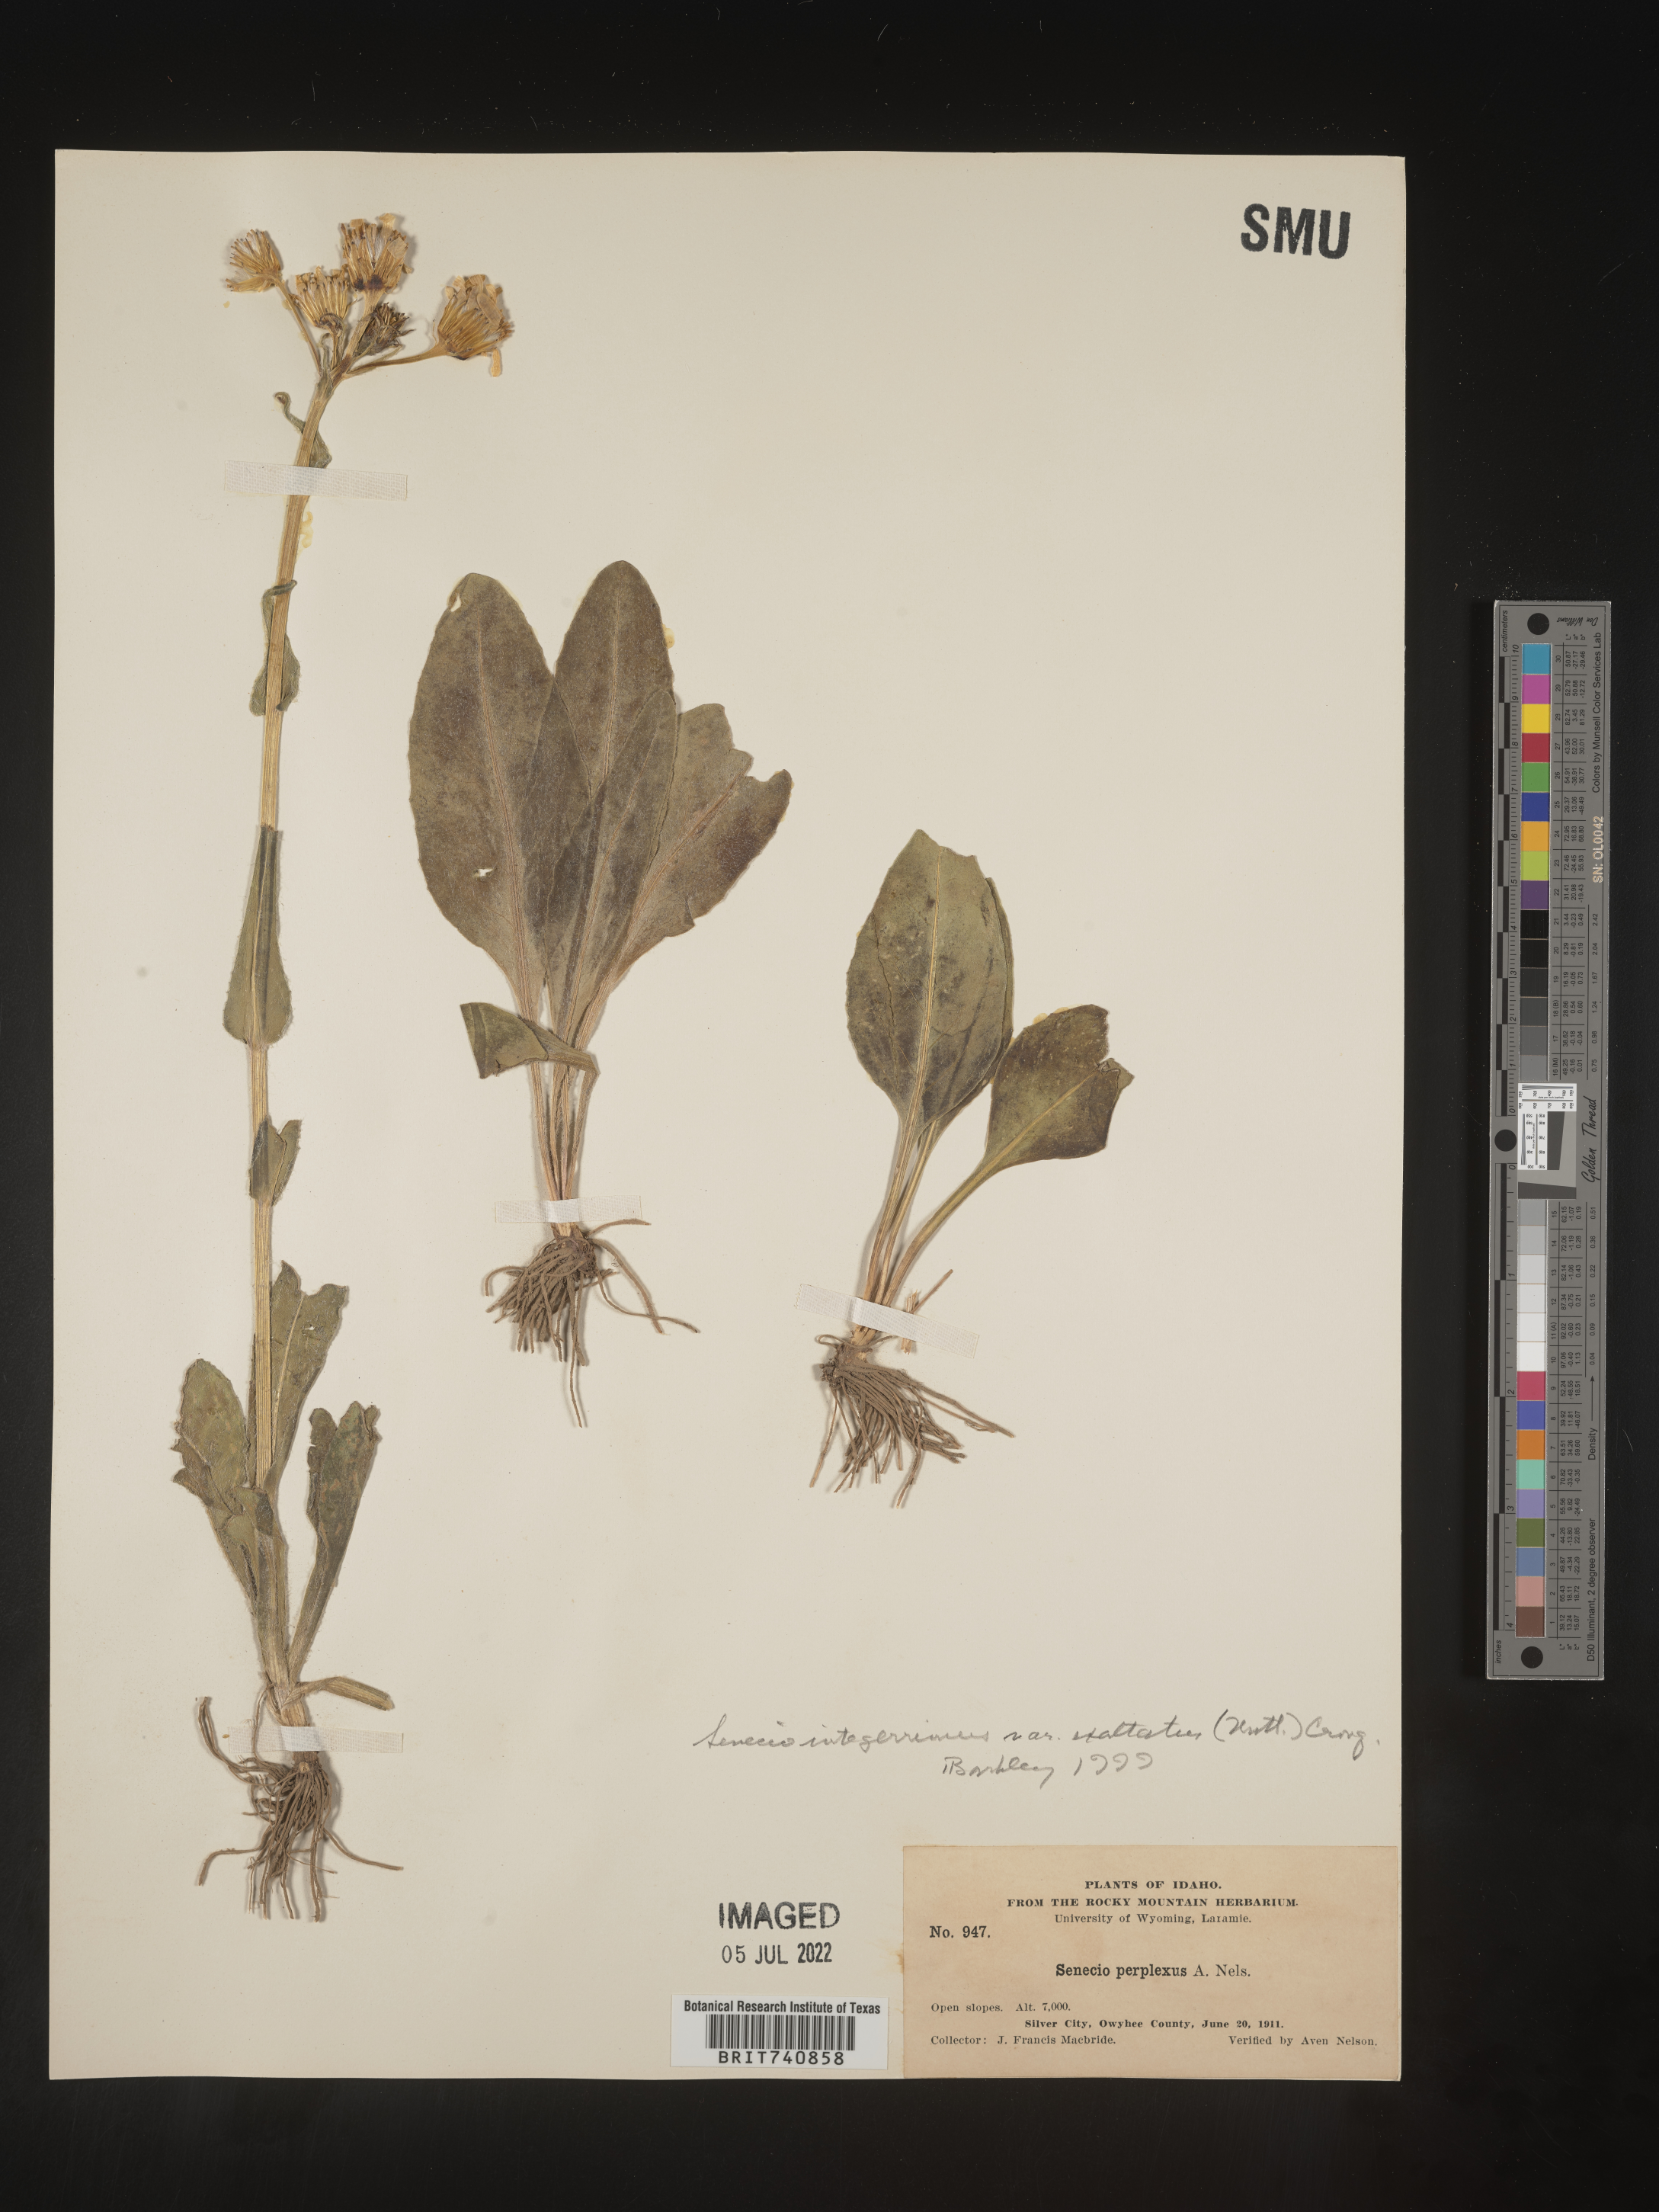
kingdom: Plantae
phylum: Tracheophyta
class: Magnoliopsida
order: Asterales
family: Asteraceae
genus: Senecio
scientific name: Senecio integerrimus
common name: Gaugeplant
